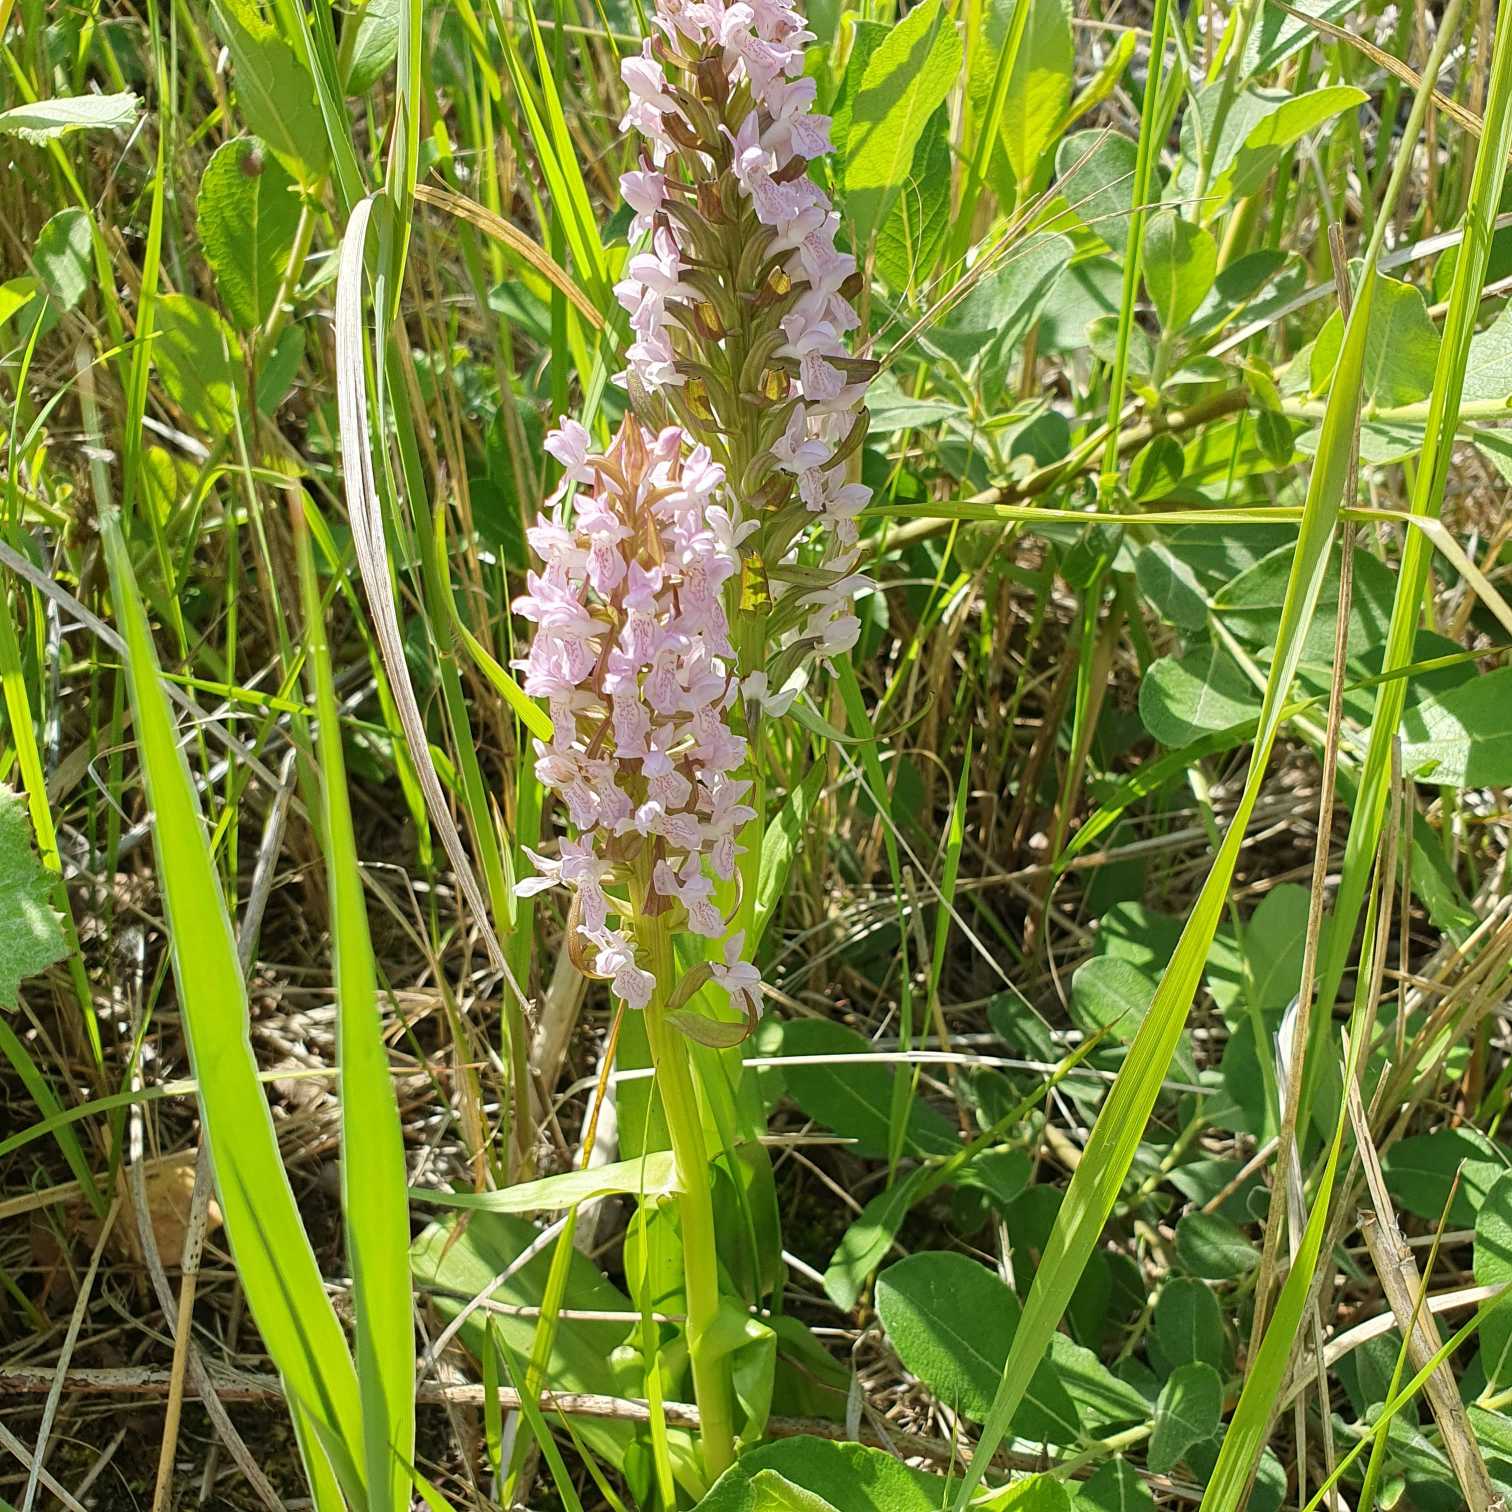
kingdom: Plantae
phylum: Tracheophyta
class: Liliopsida
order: Asparagales
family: Orchidaceae
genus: Dactylorhiza
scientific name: Dactylorhiza incarnata
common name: Kødfarvet gøgeurt
